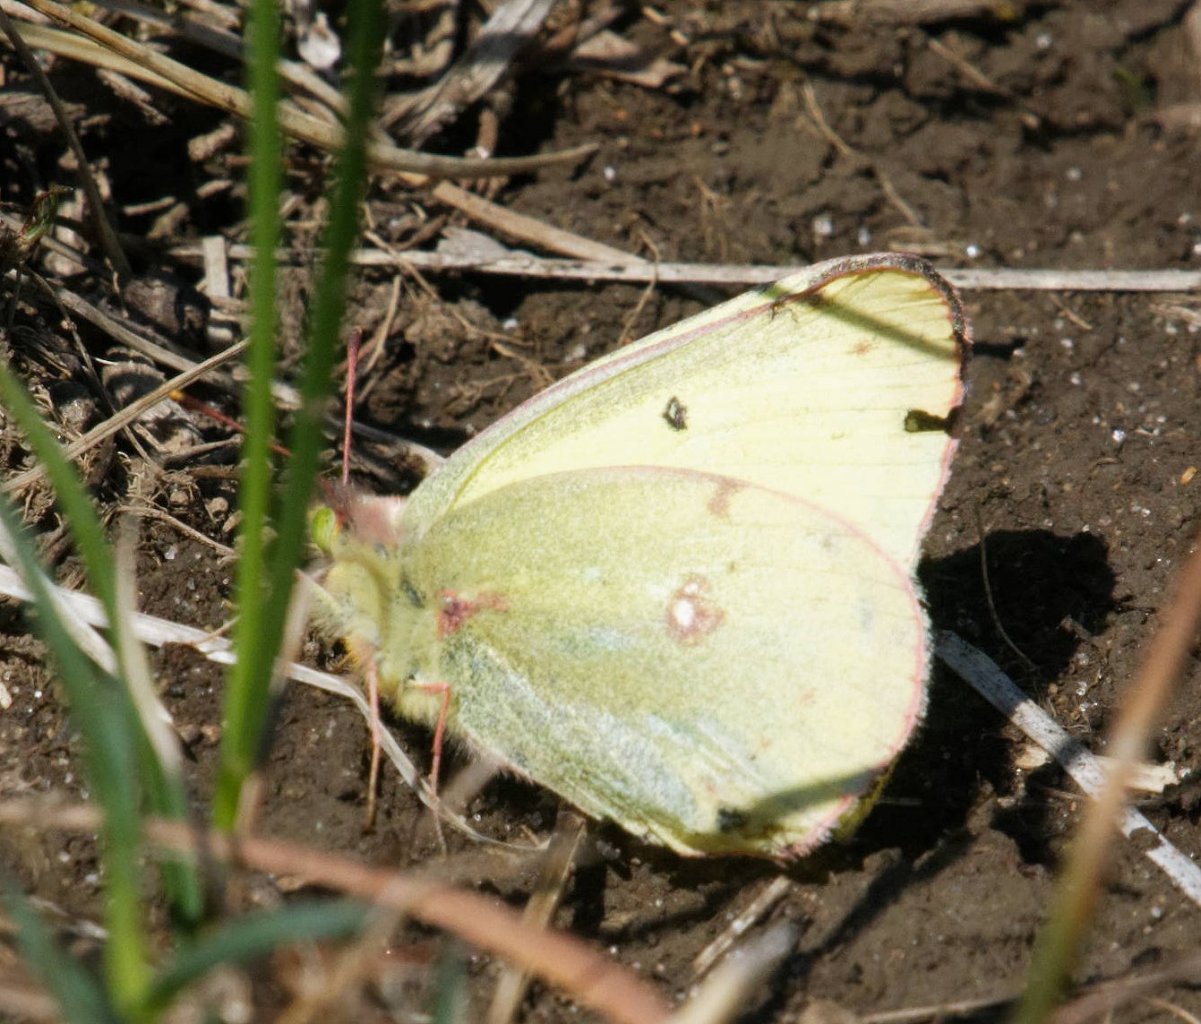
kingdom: Animalia
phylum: Arthropoda
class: Insecta
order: Lepidoptera
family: Pieridae
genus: Colias
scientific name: Colias philodice
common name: Clouded Sulphur
